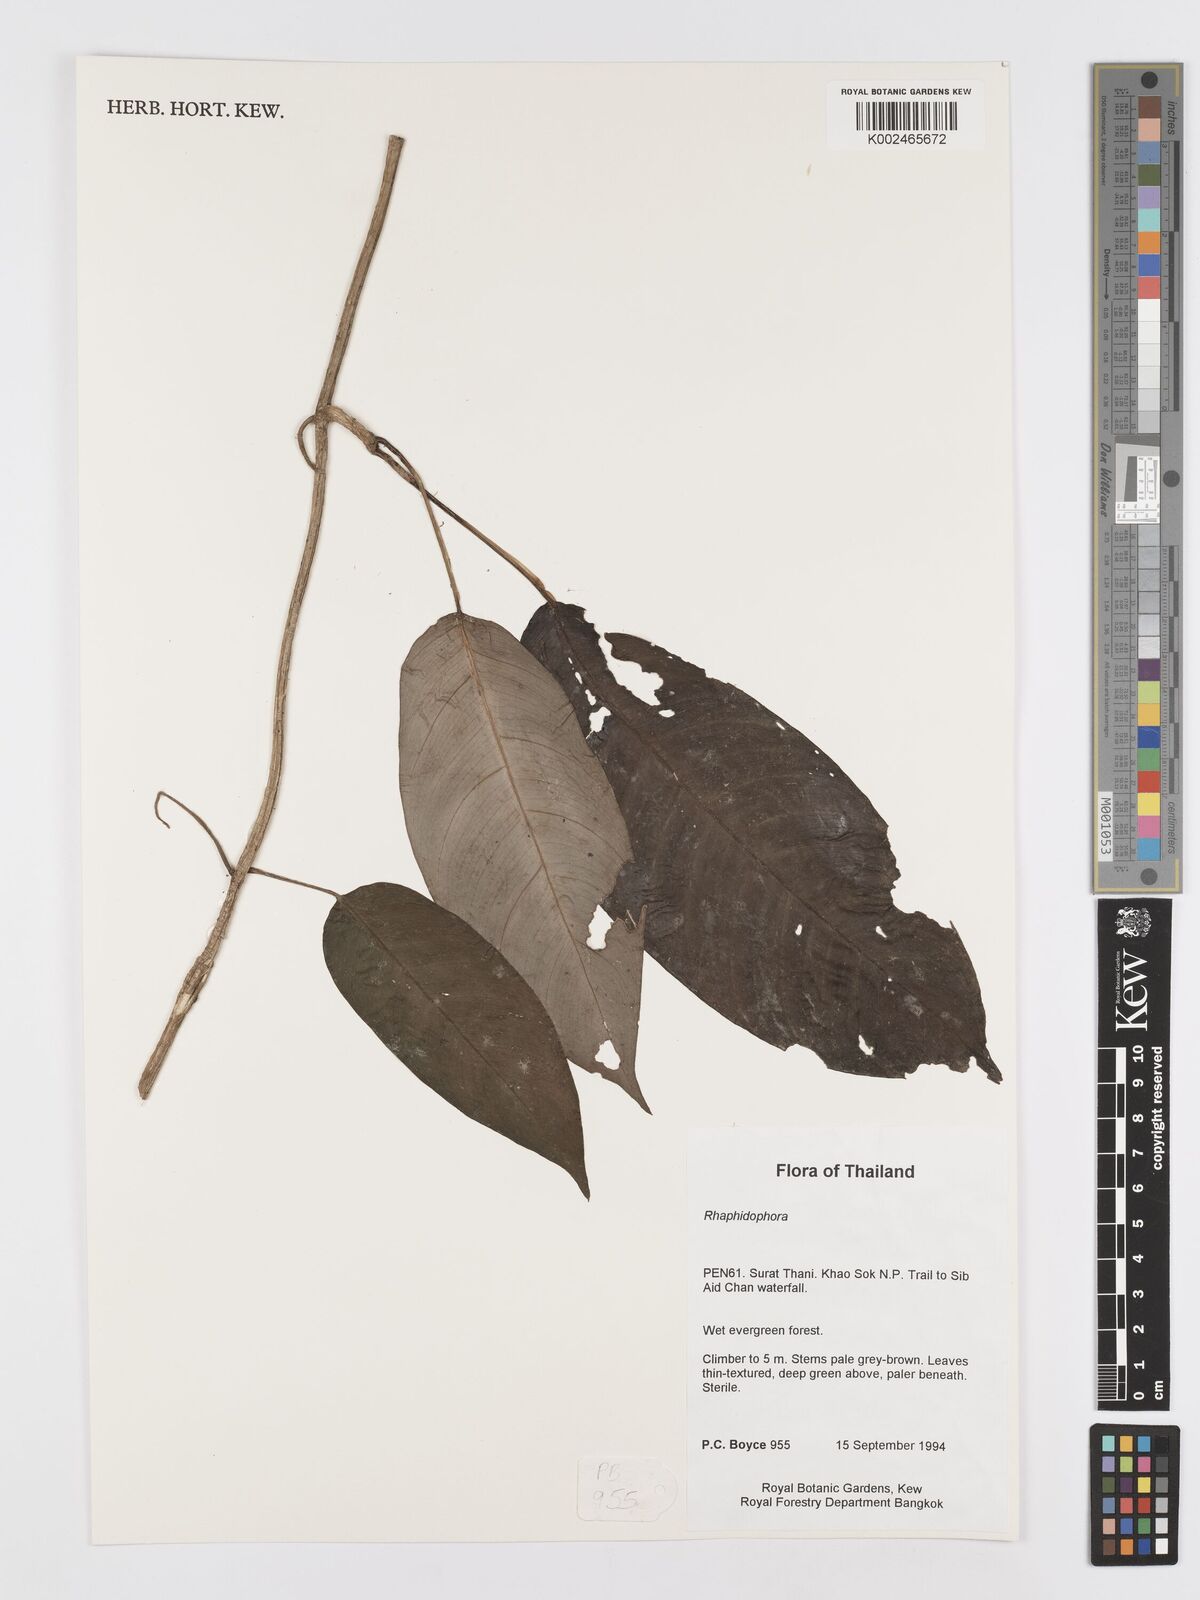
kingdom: Plantae
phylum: Tracheophyta
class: Liliopsida
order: Alismatales
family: Araceae
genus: Rhaphidophora
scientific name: Rhaphidophora lobbii
